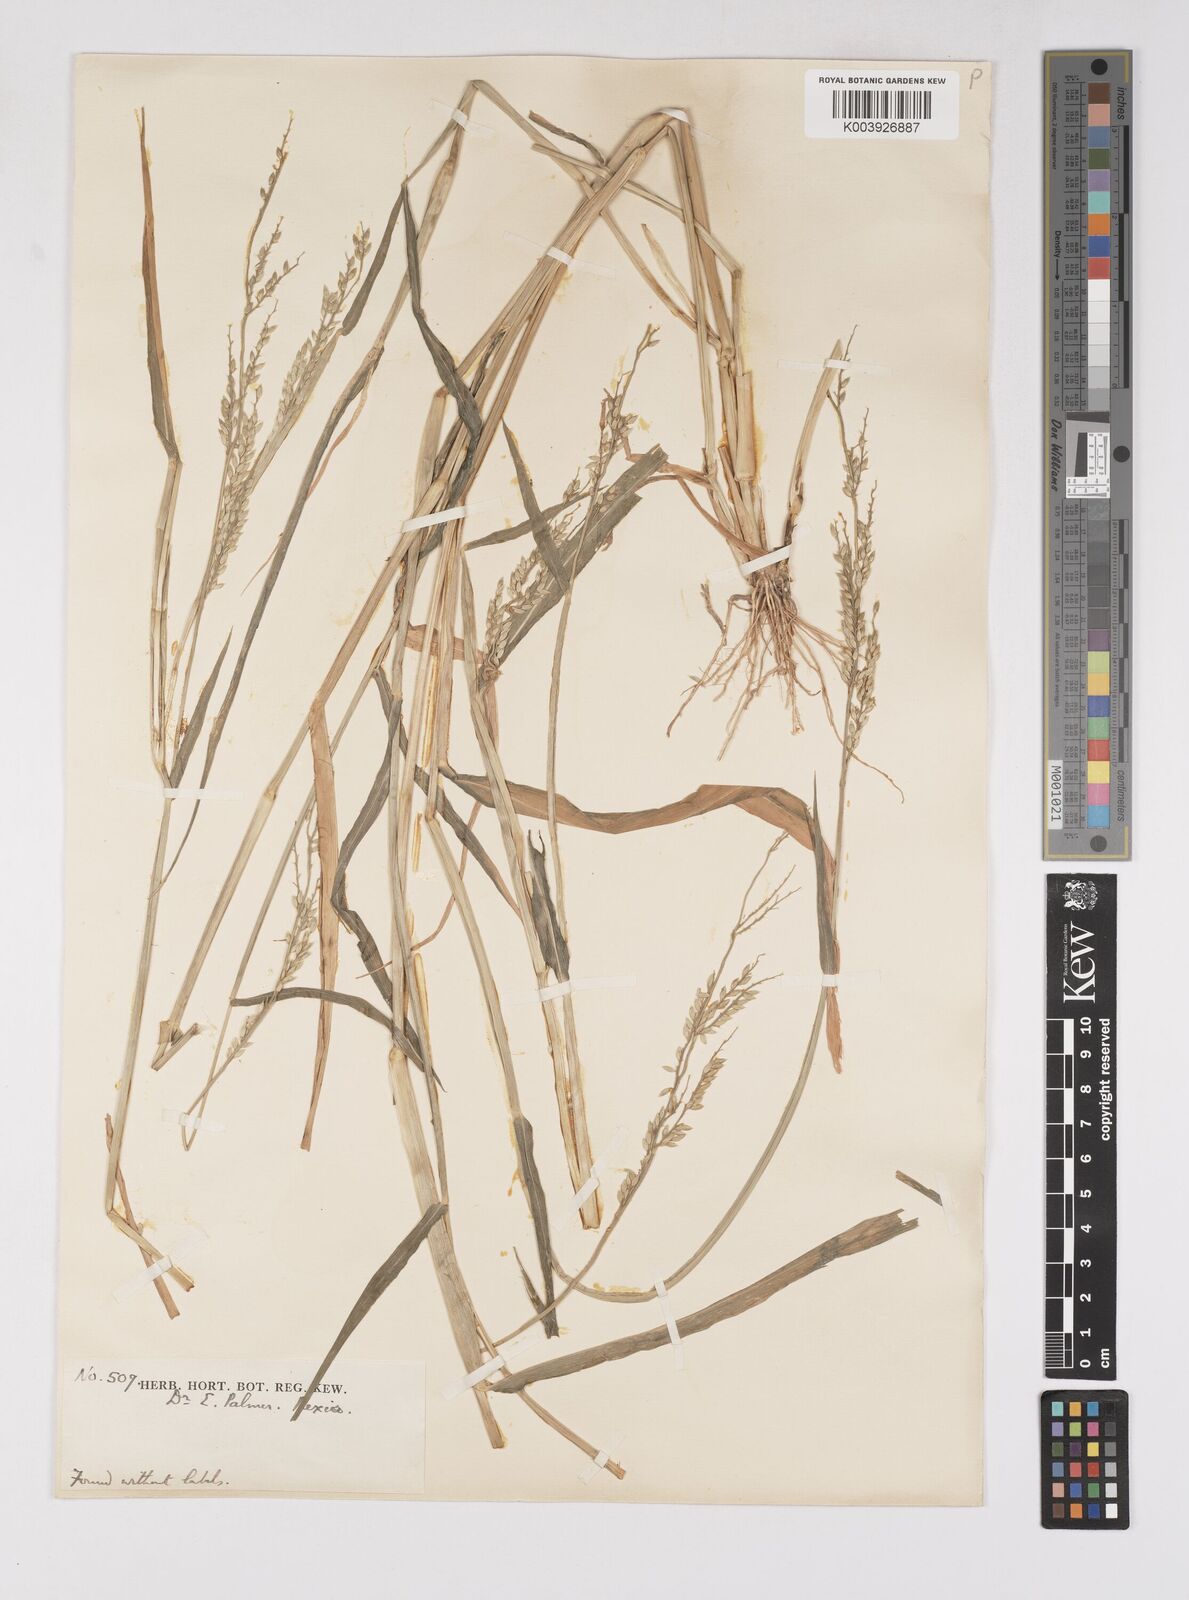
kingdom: Plantae
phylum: Tracheophyta
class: Liliopsida
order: Poales
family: Poaceae
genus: Eriochloa
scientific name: Eriochloa
